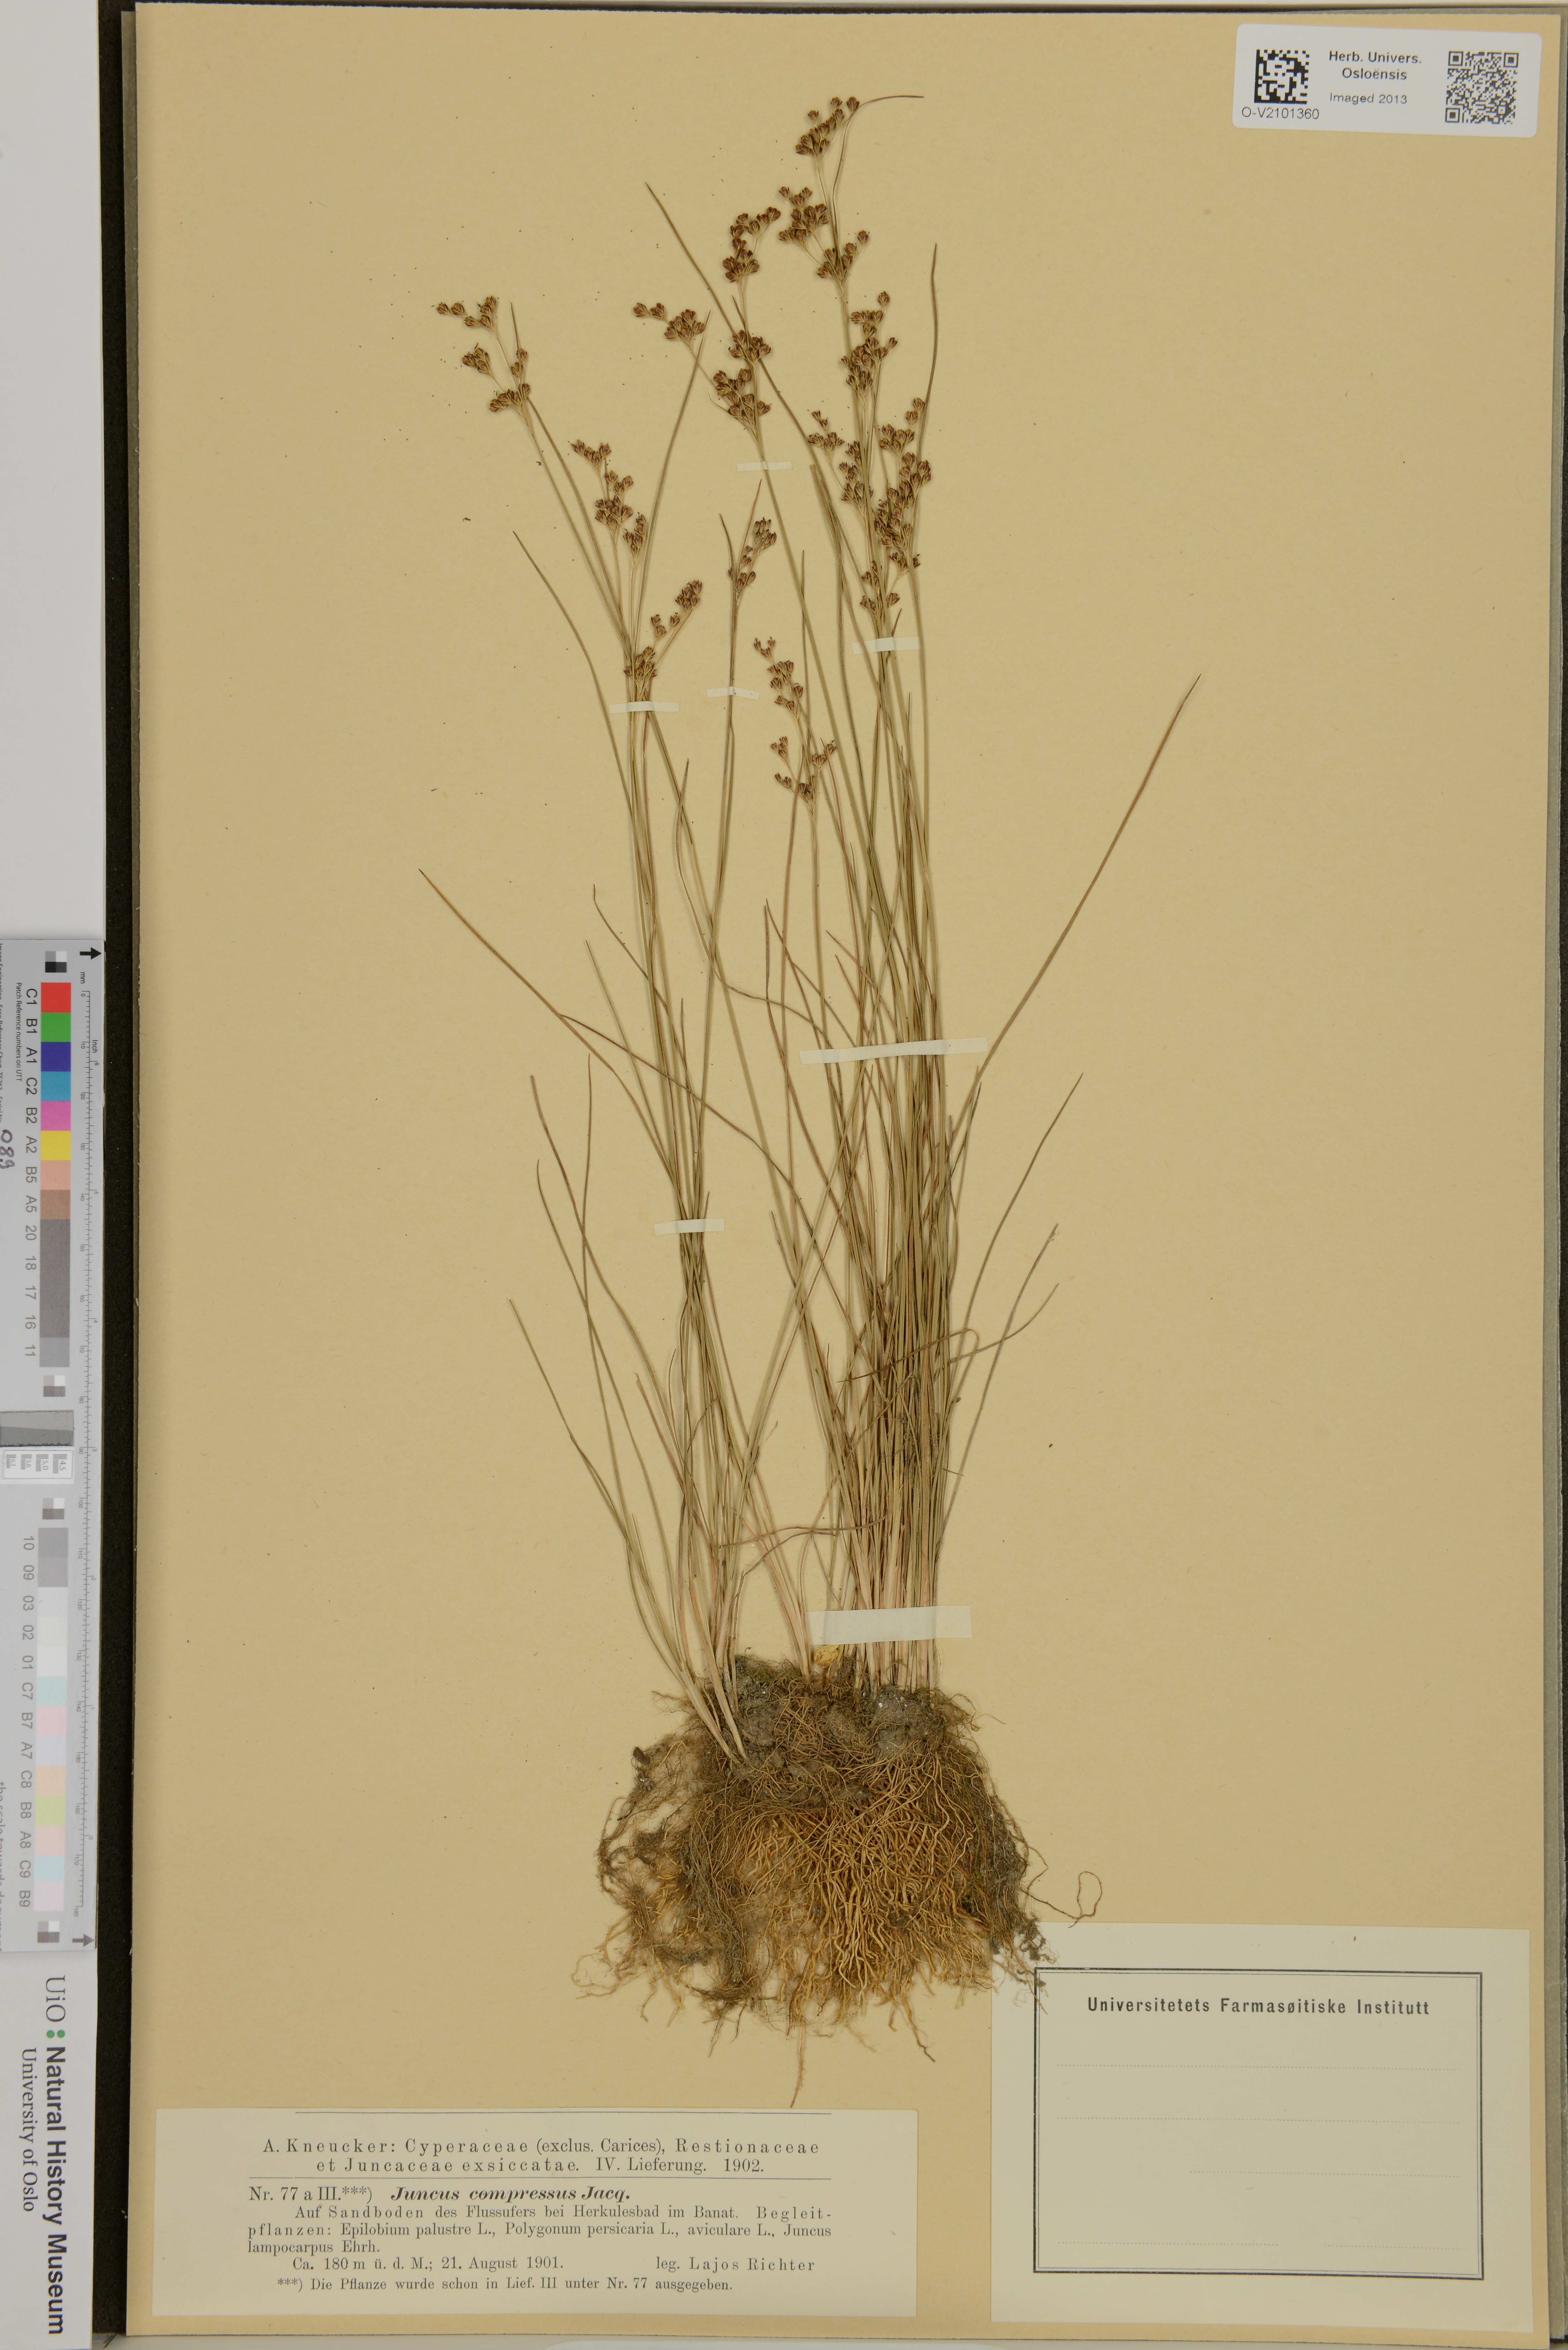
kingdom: Plantae
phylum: Tracheophyta
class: Liliopsida
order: Poales
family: Juncaceae
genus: Juncus
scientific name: Juncus compressus
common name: Round-fruited rush
